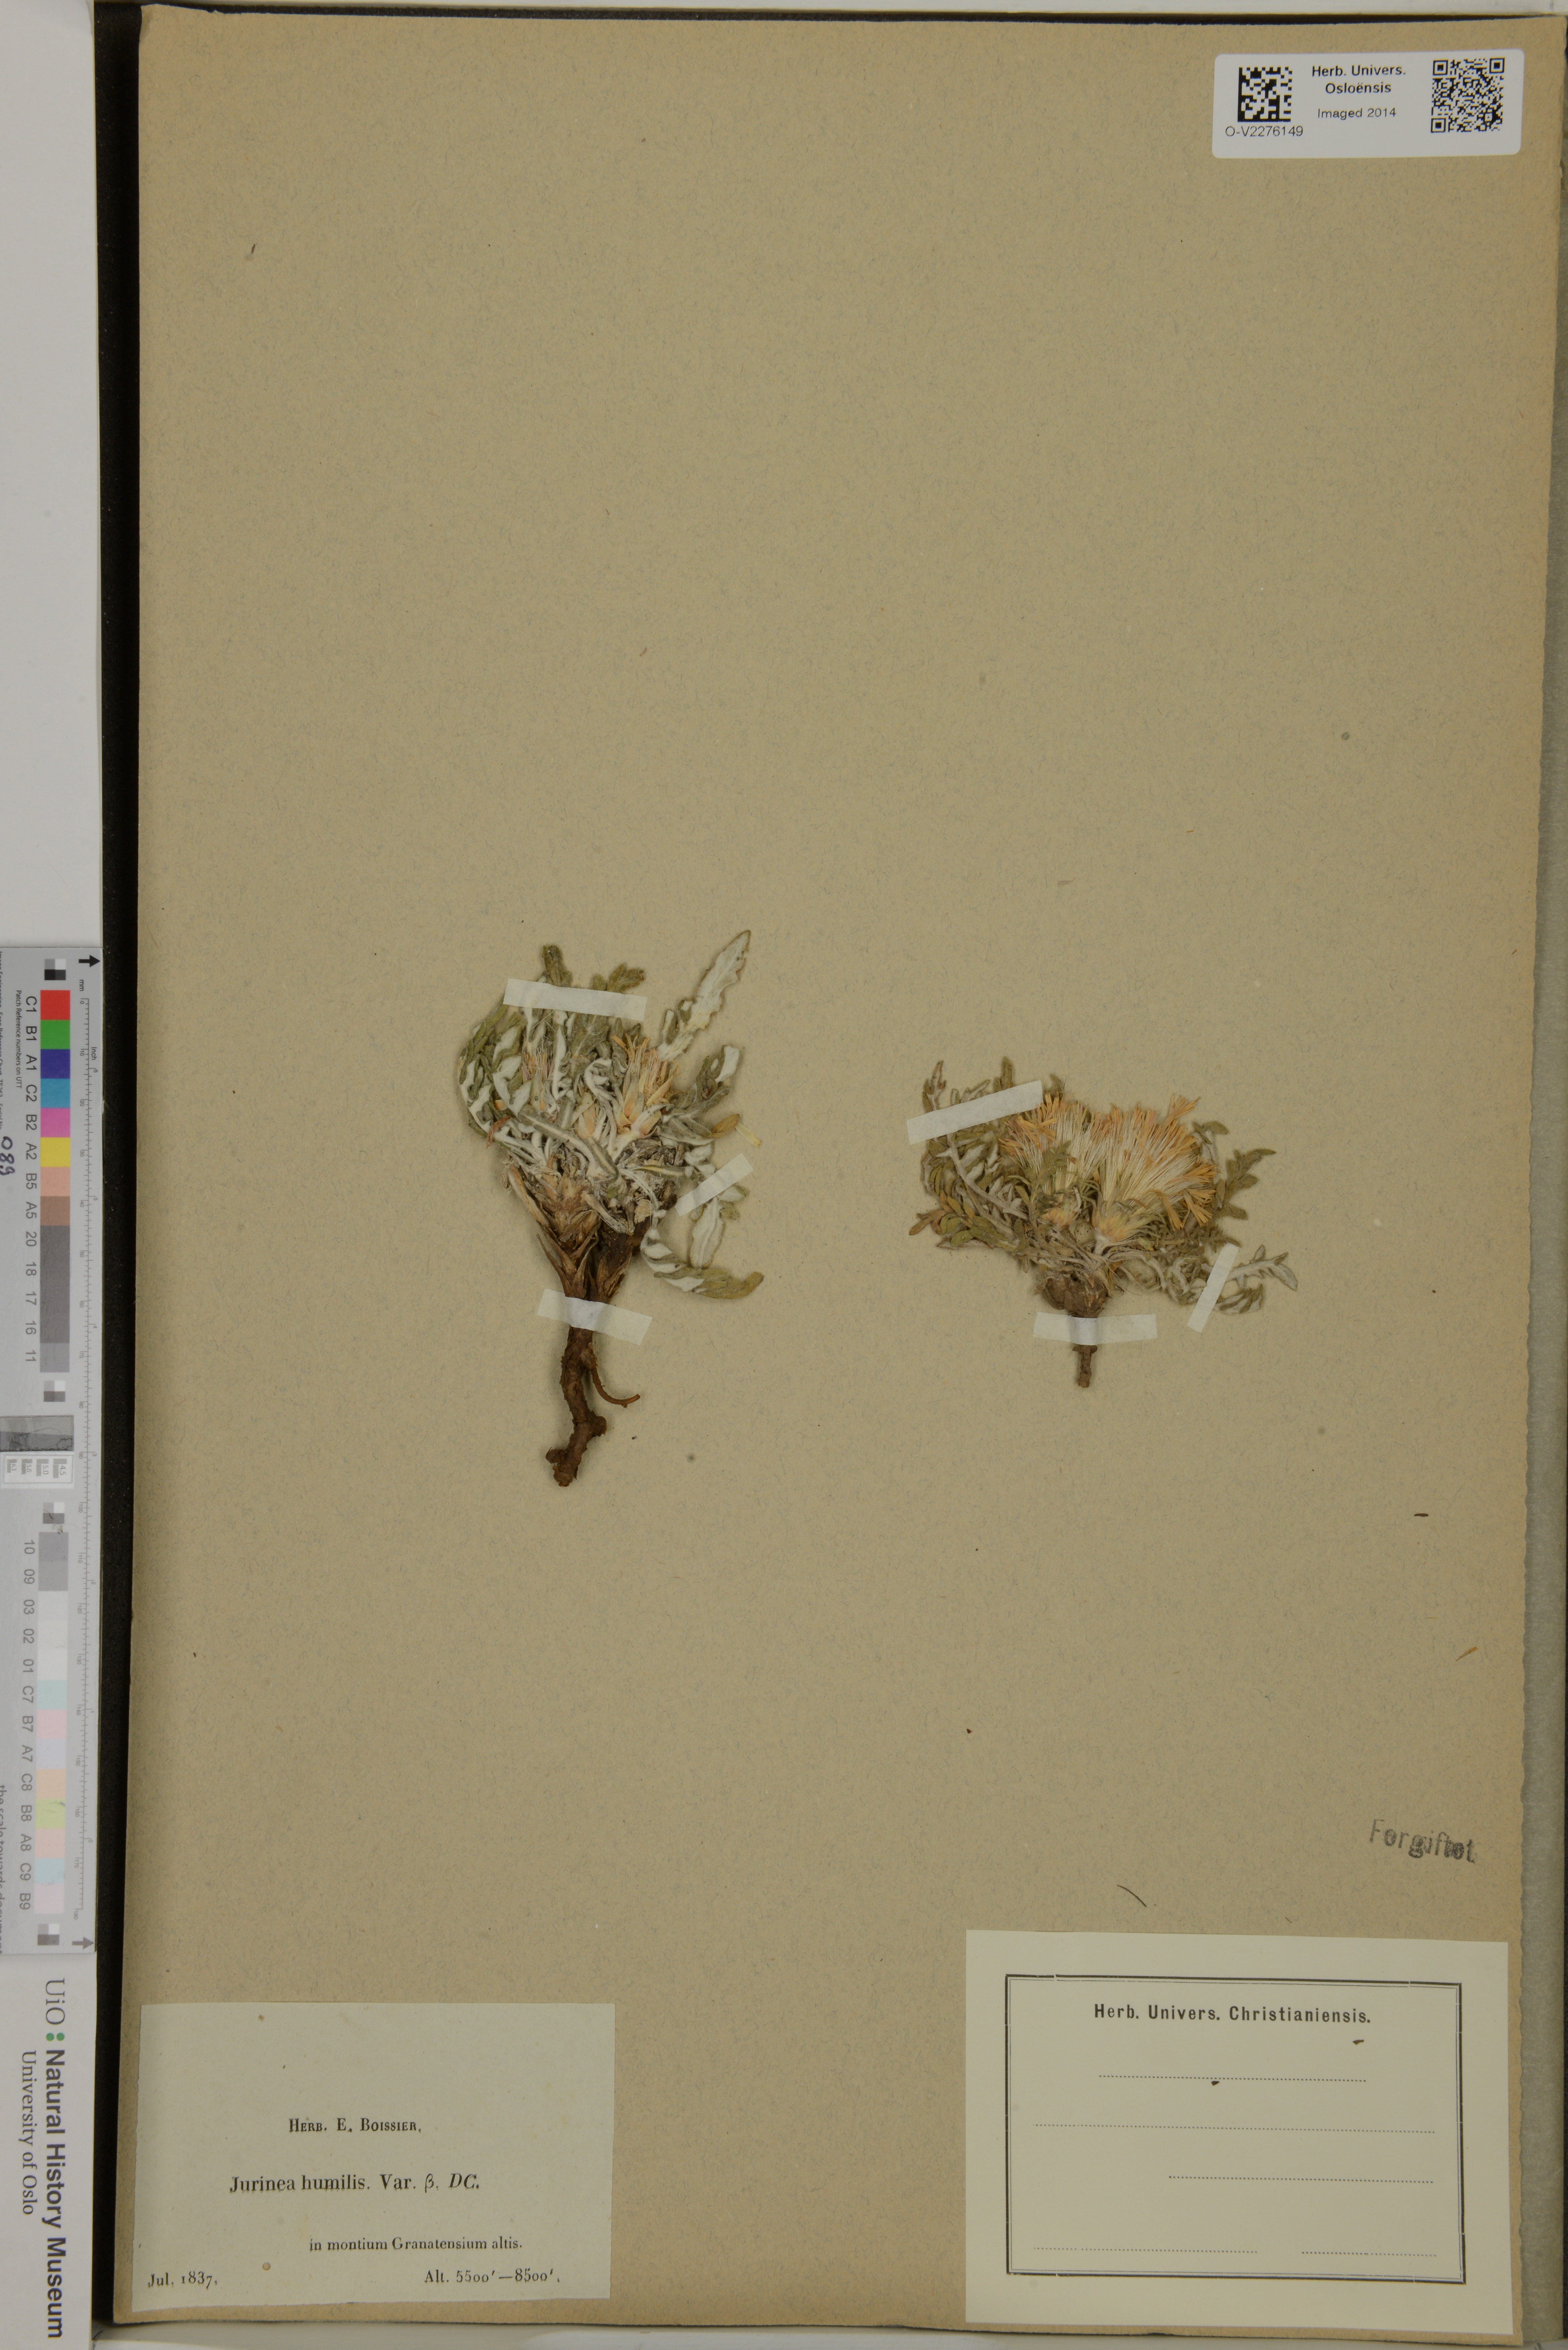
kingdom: Plantae
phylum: Tracheophyta
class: Magnoliopsida
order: Asterales
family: Asteraceae
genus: Jurinea
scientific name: Jurinea humilis
